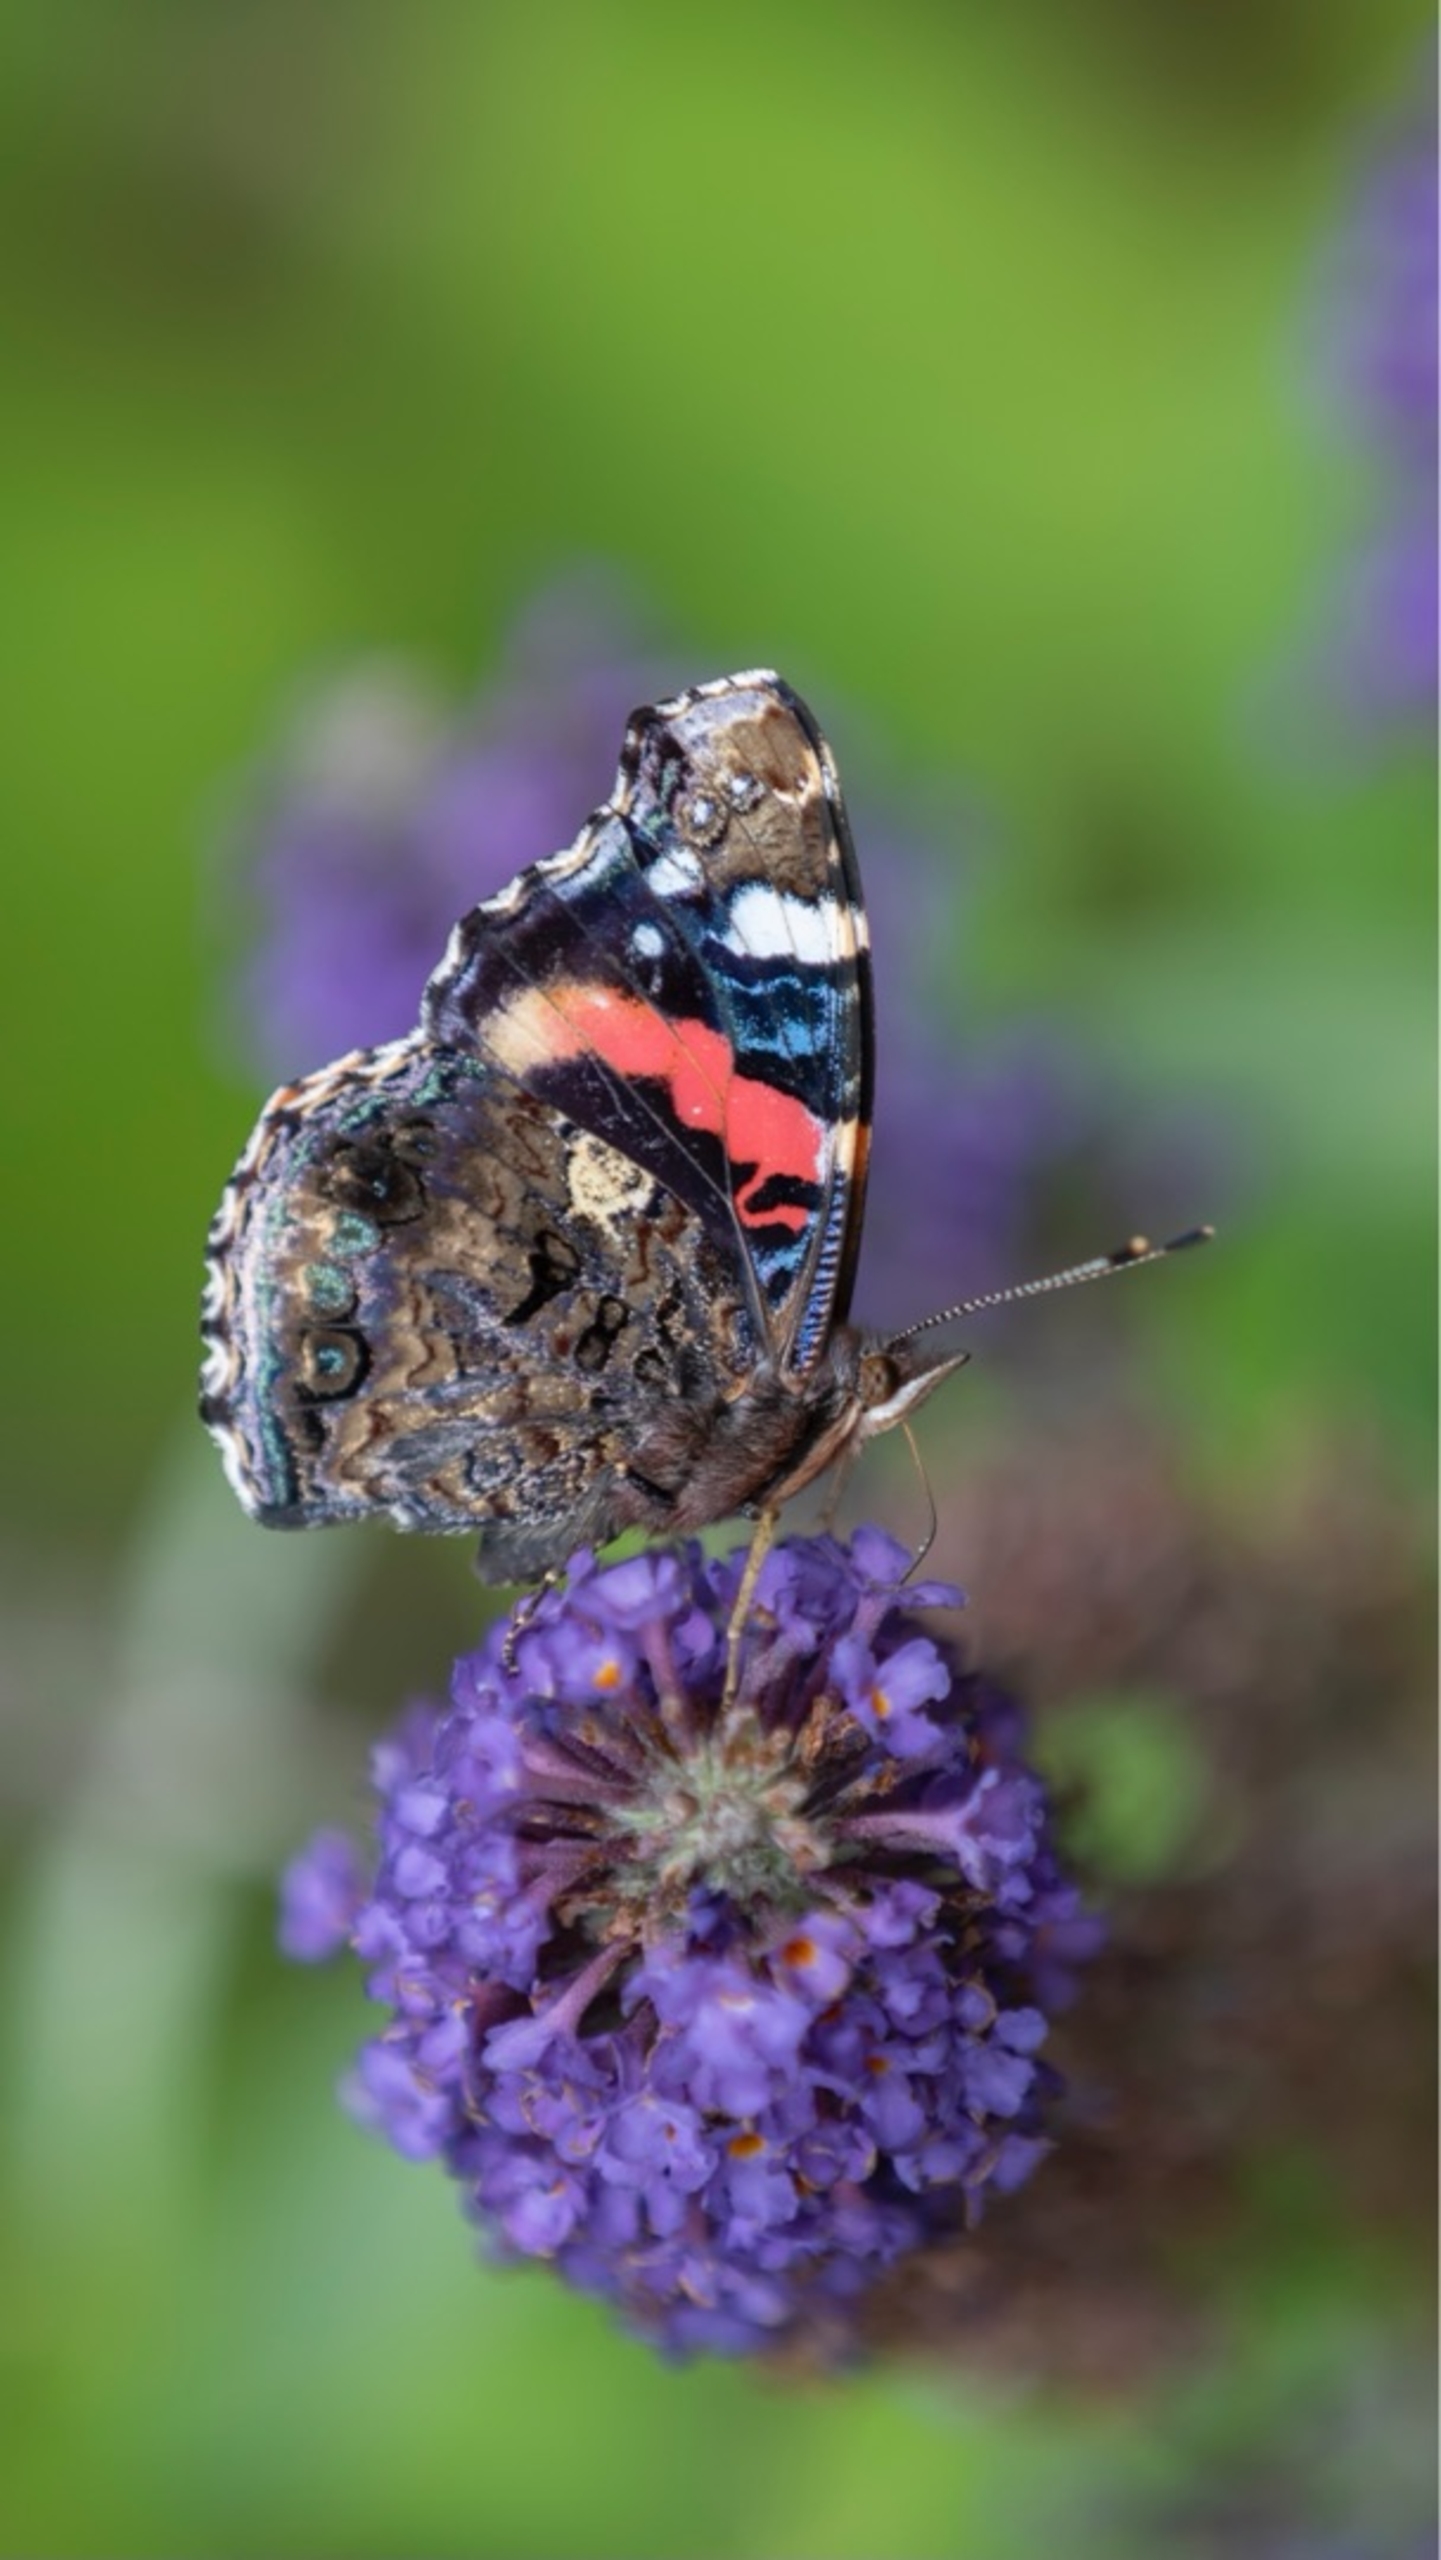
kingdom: Animalia
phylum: Arthropoda
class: Insecta
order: Lepidoptera
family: Nymphalidae
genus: Vanessa
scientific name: Vanessa atalanta
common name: Admiral
